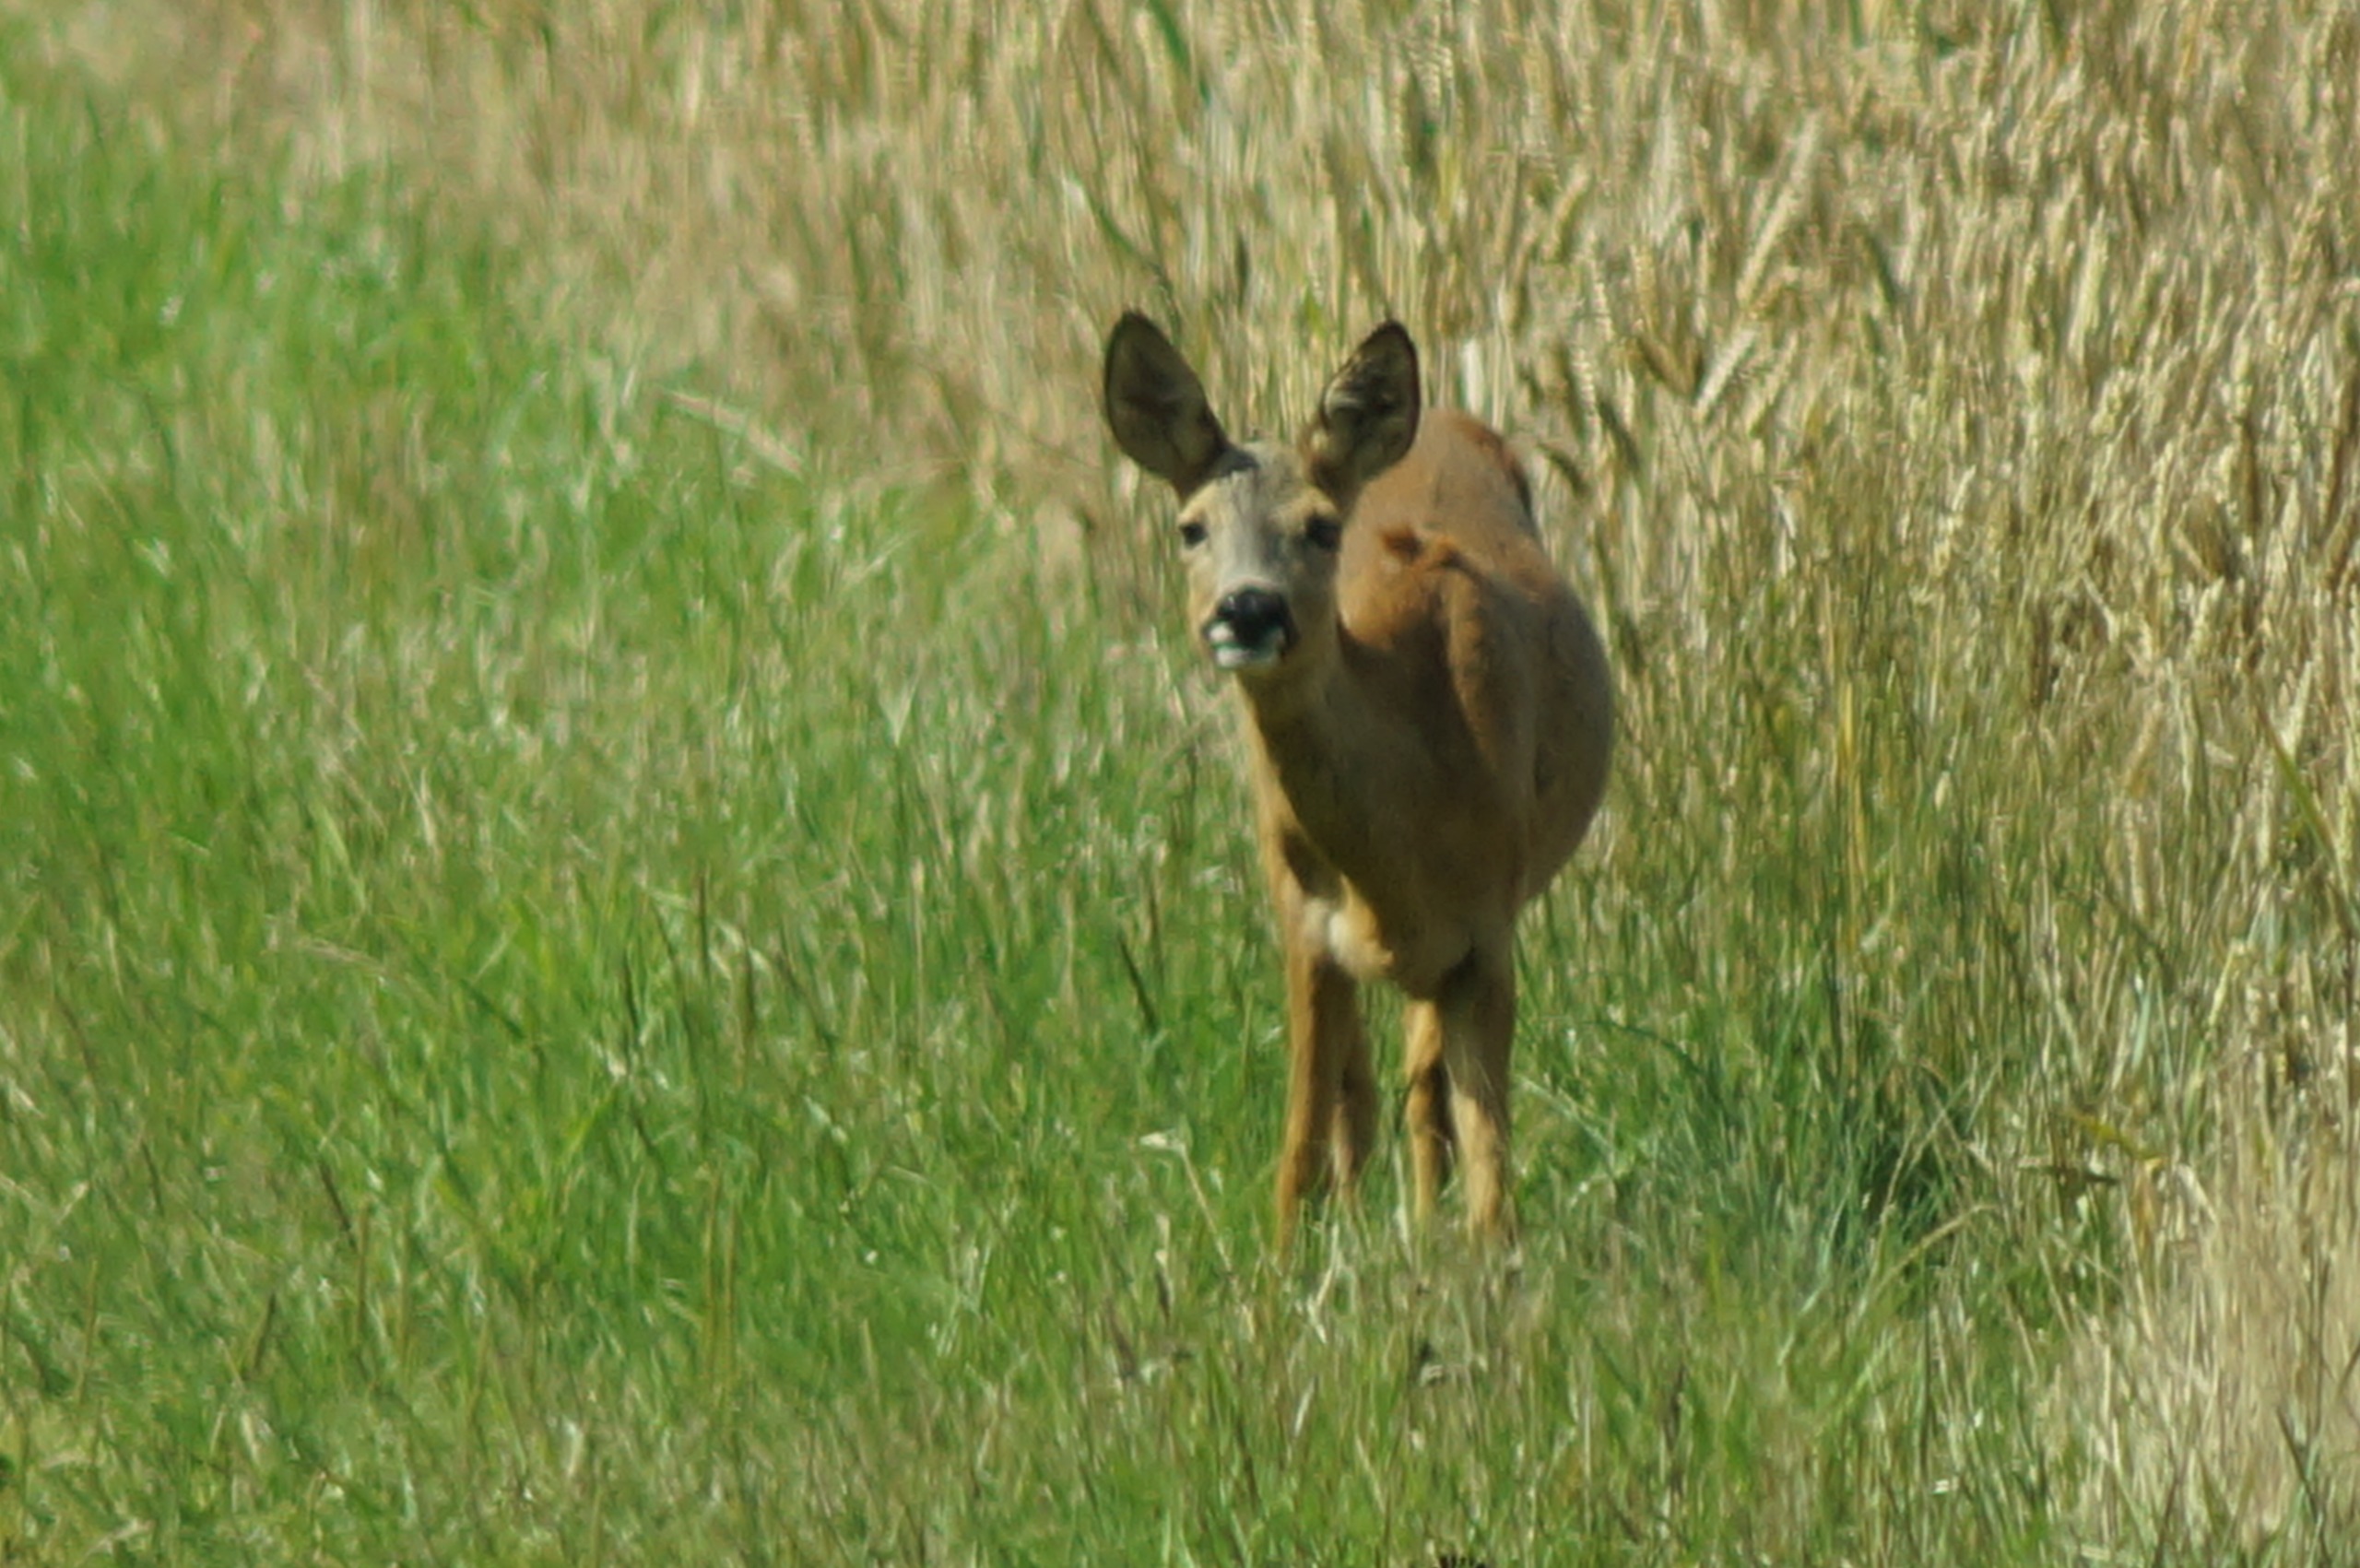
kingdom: Animalia
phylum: Chordata
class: Mammalia
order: Artiodactyla
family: Cervidae
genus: Capreolus
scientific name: Capreolus capreolus
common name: Rådyr
